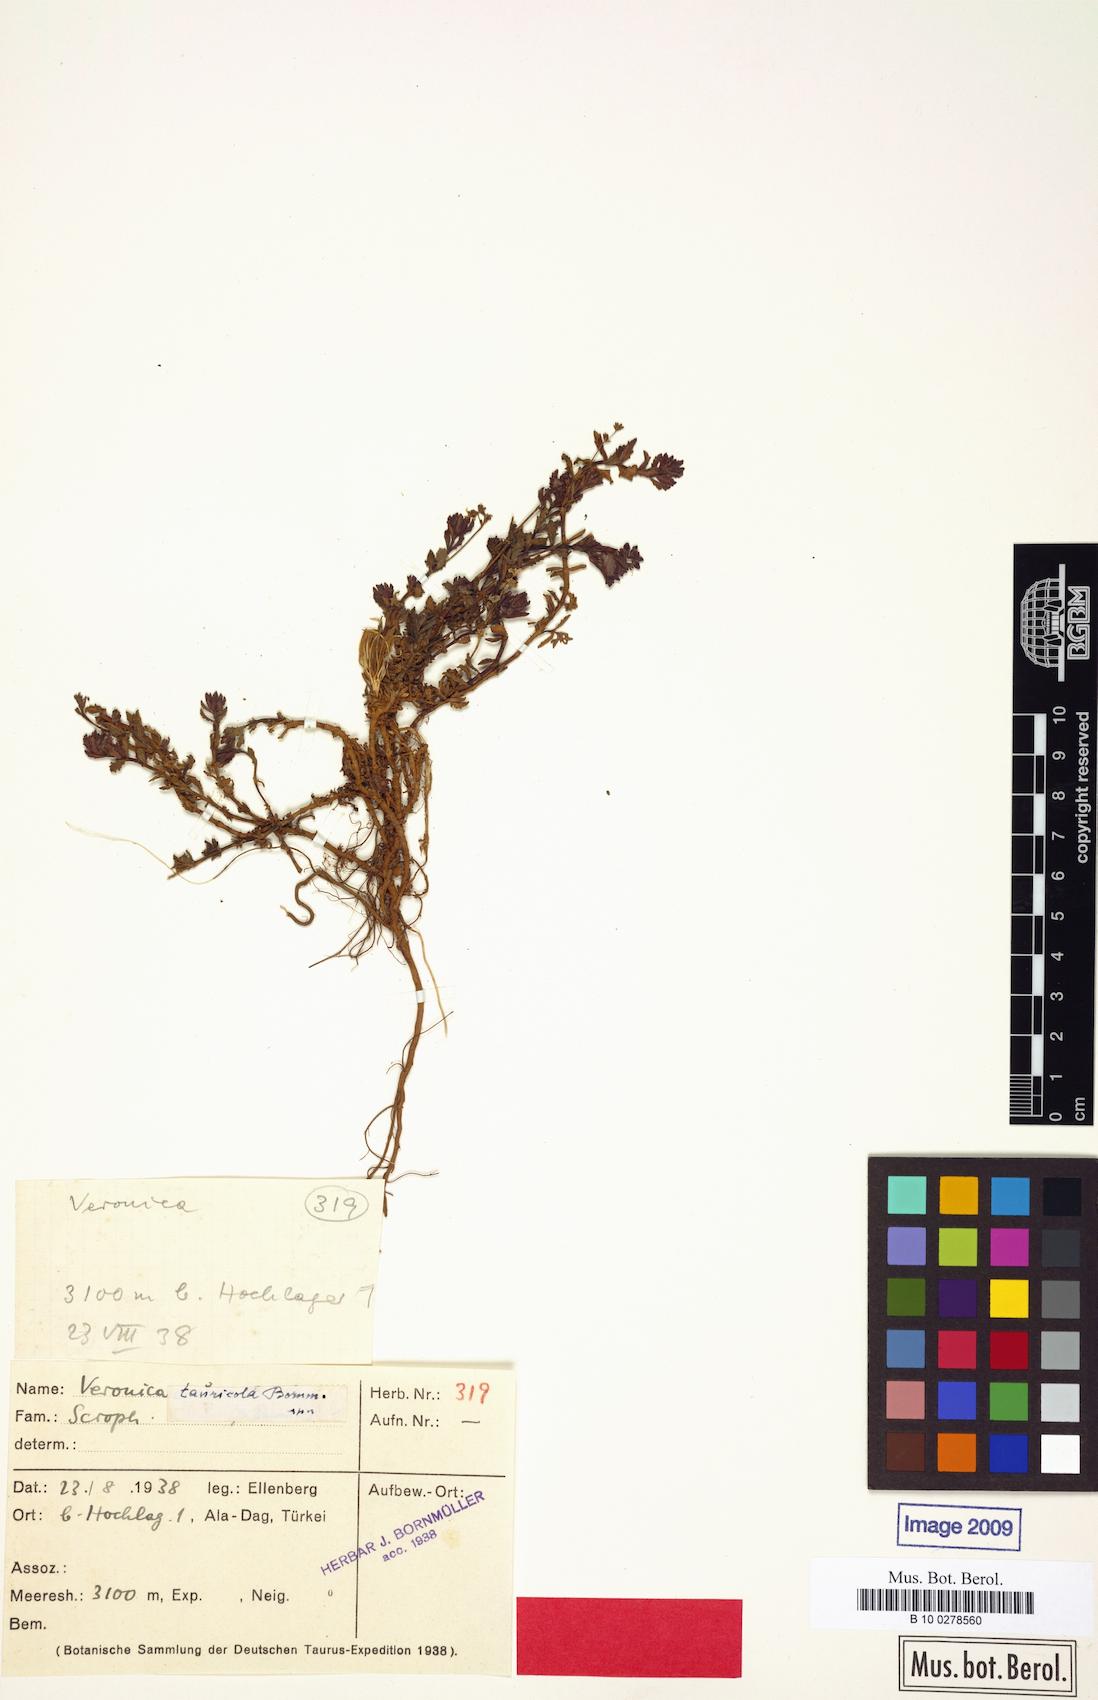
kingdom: Plantae
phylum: Tracheophyta
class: Magnoliopsida
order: Lamiales
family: Plantaginaceae
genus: Veronica
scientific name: Veronica tauricola
